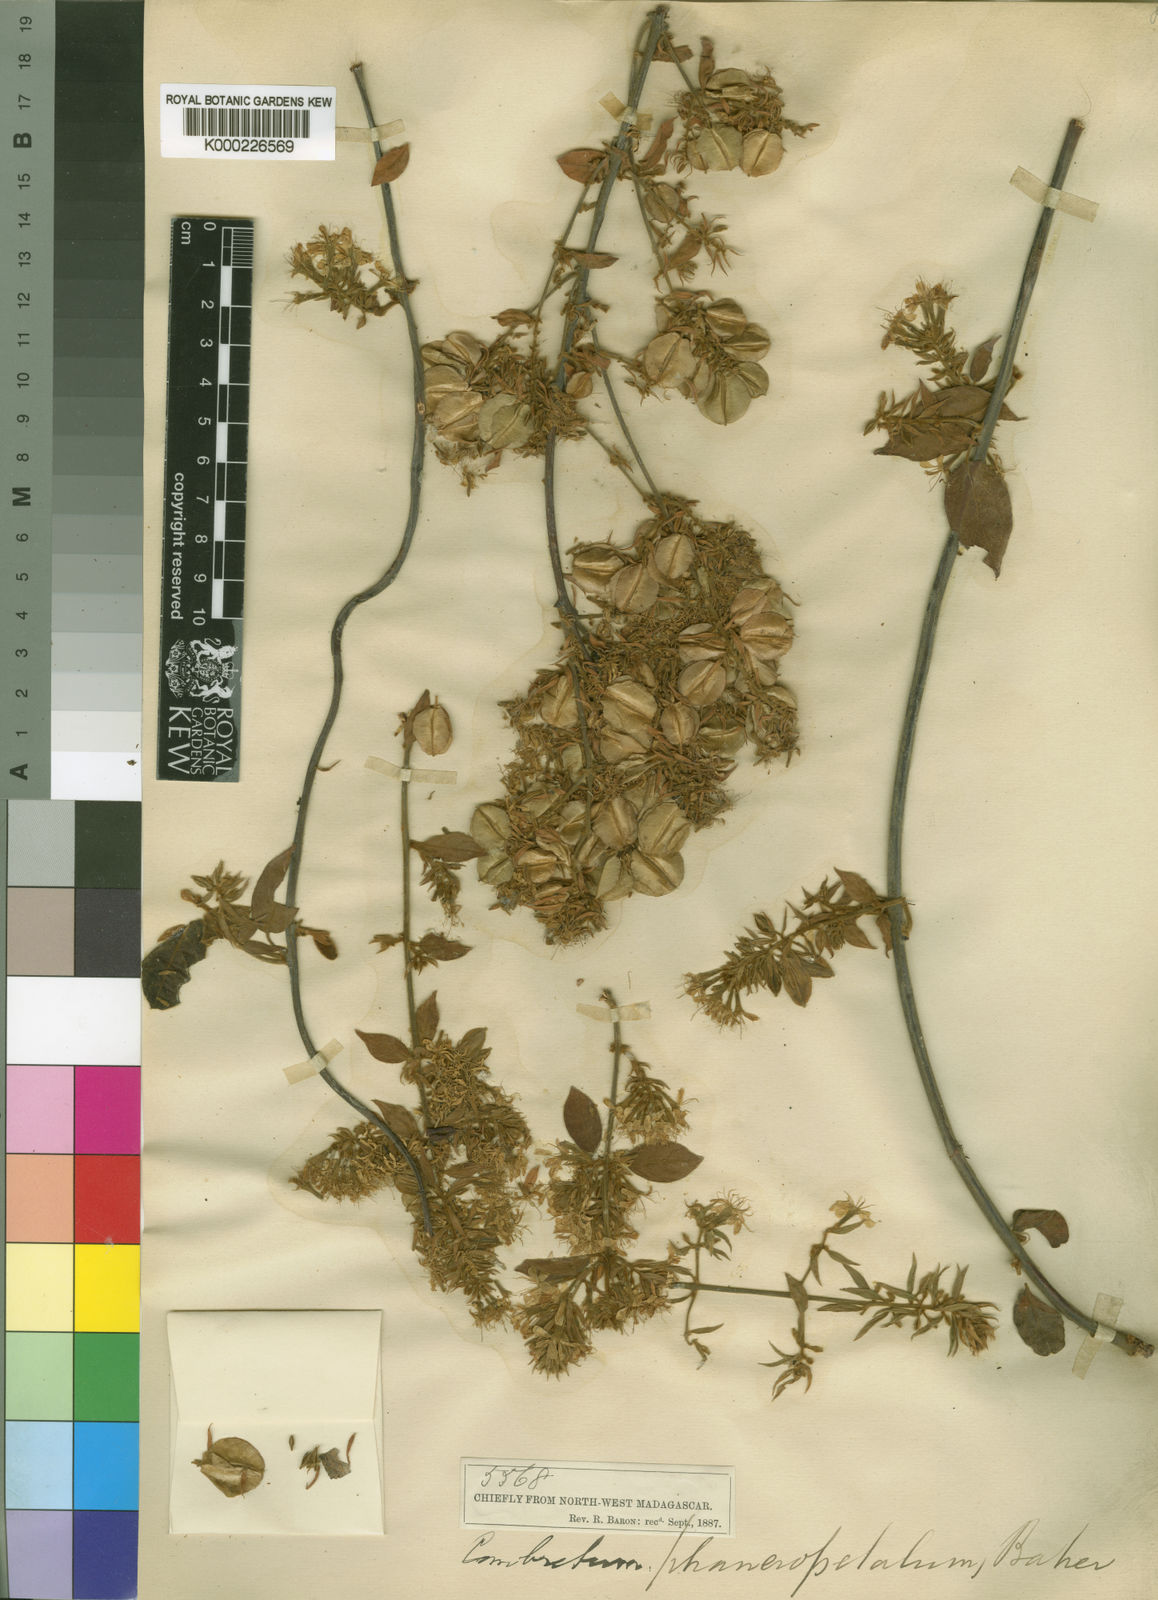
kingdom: Plantae
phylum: Tracheophyta
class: Magnoliopsida
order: Myrtales
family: Combretaceae
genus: Combretum
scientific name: Combretum albiflorum
